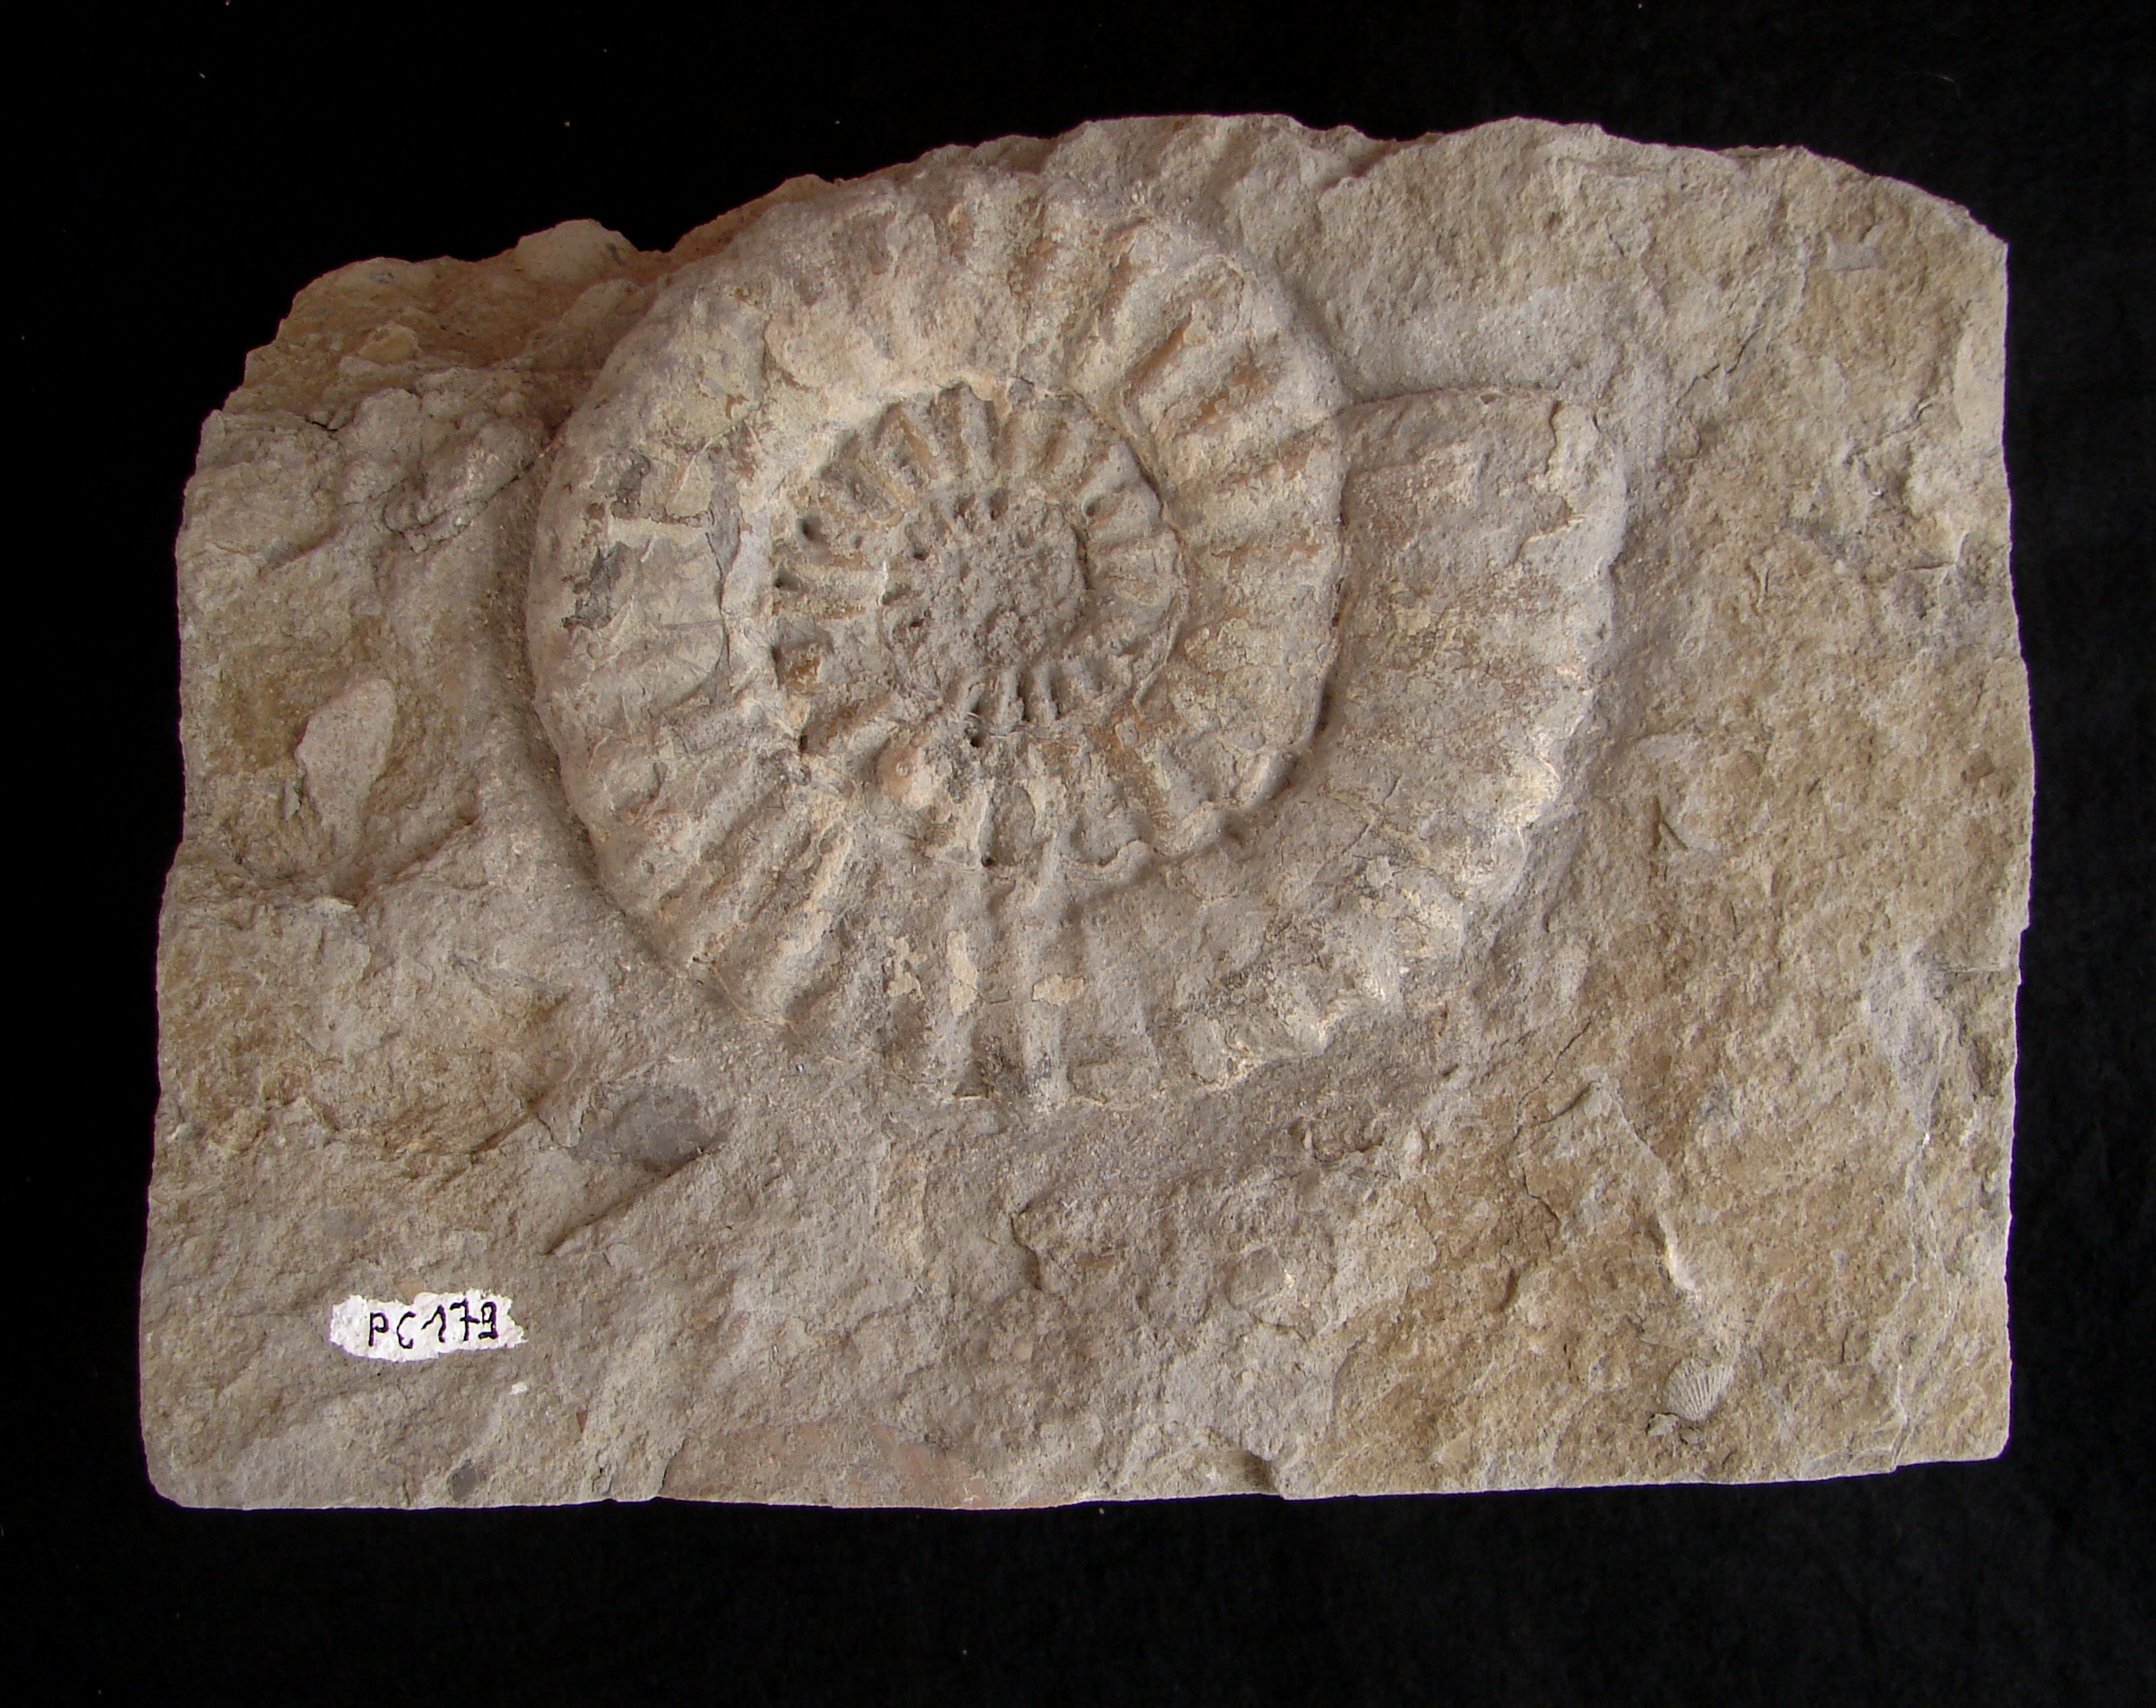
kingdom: Animalia
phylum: Mollusca
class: Cephalopoda
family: Liparoceratidae
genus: Aegoceras
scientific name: Aegoceras lataecosta
